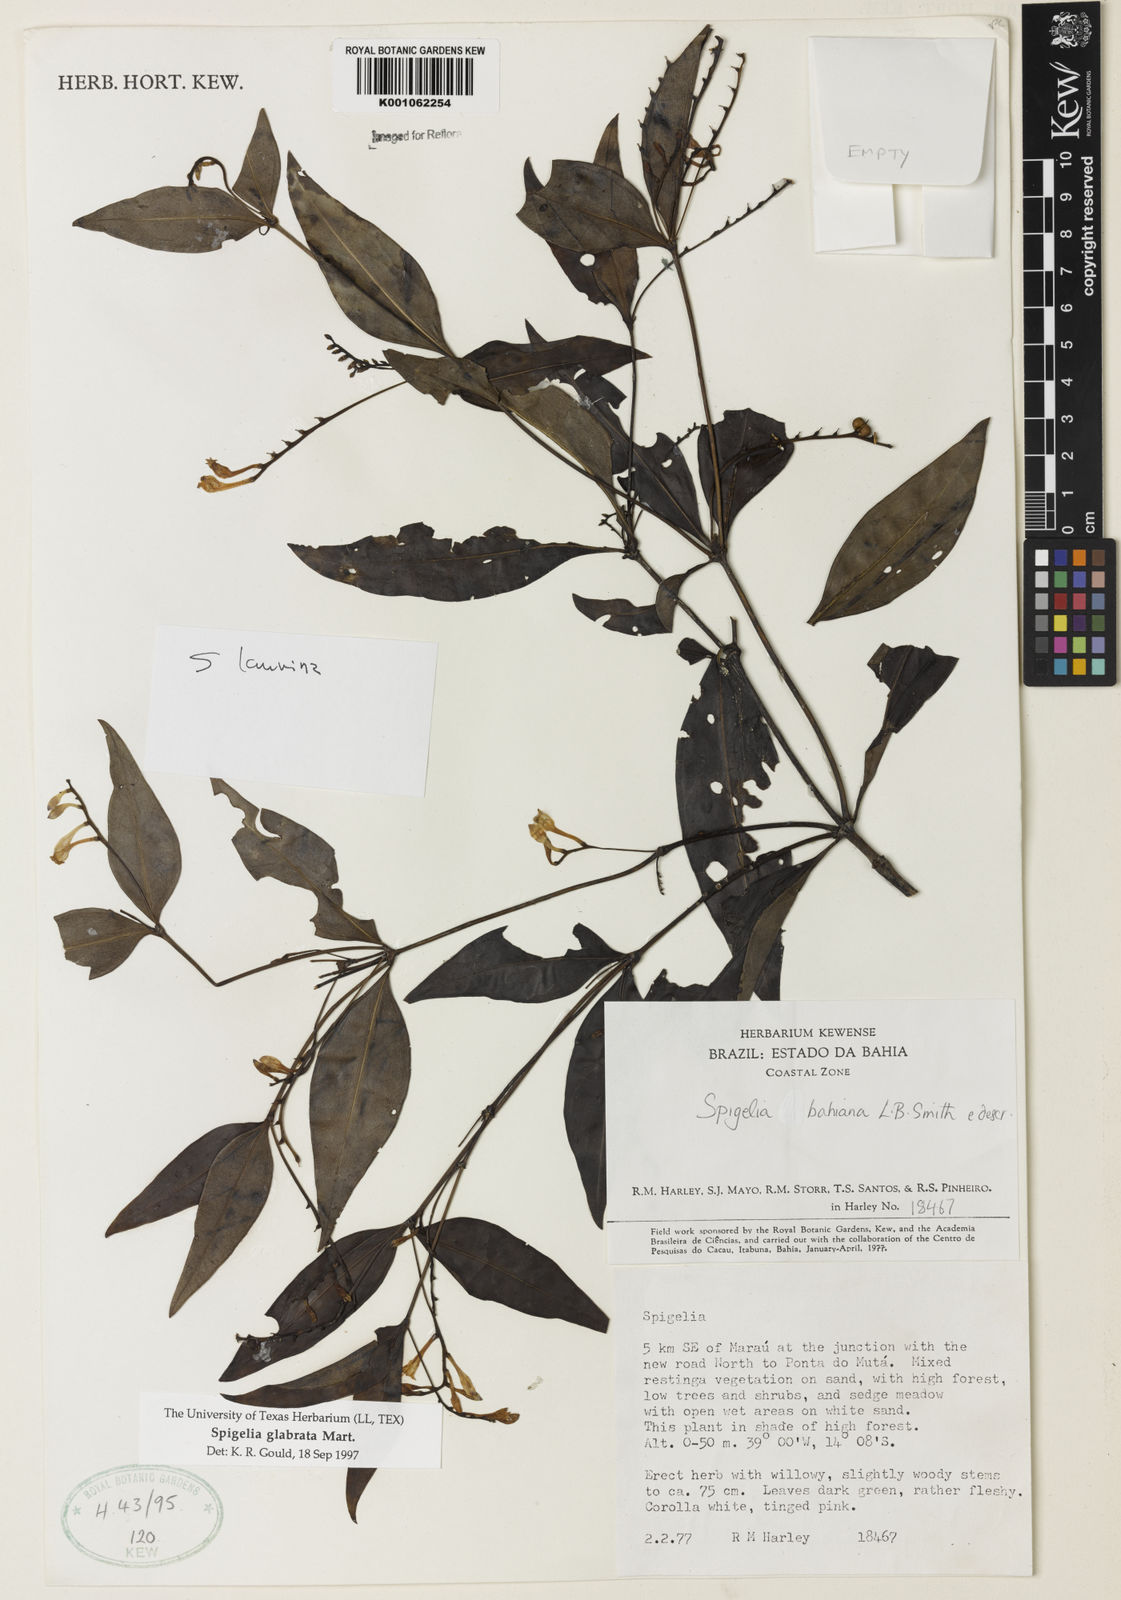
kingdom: Plantae
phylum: Tracheophyta
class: Magnoliopsida
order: Gentianales
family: Loganiaceae
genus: Spigelia
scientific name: Spigelia laurina
